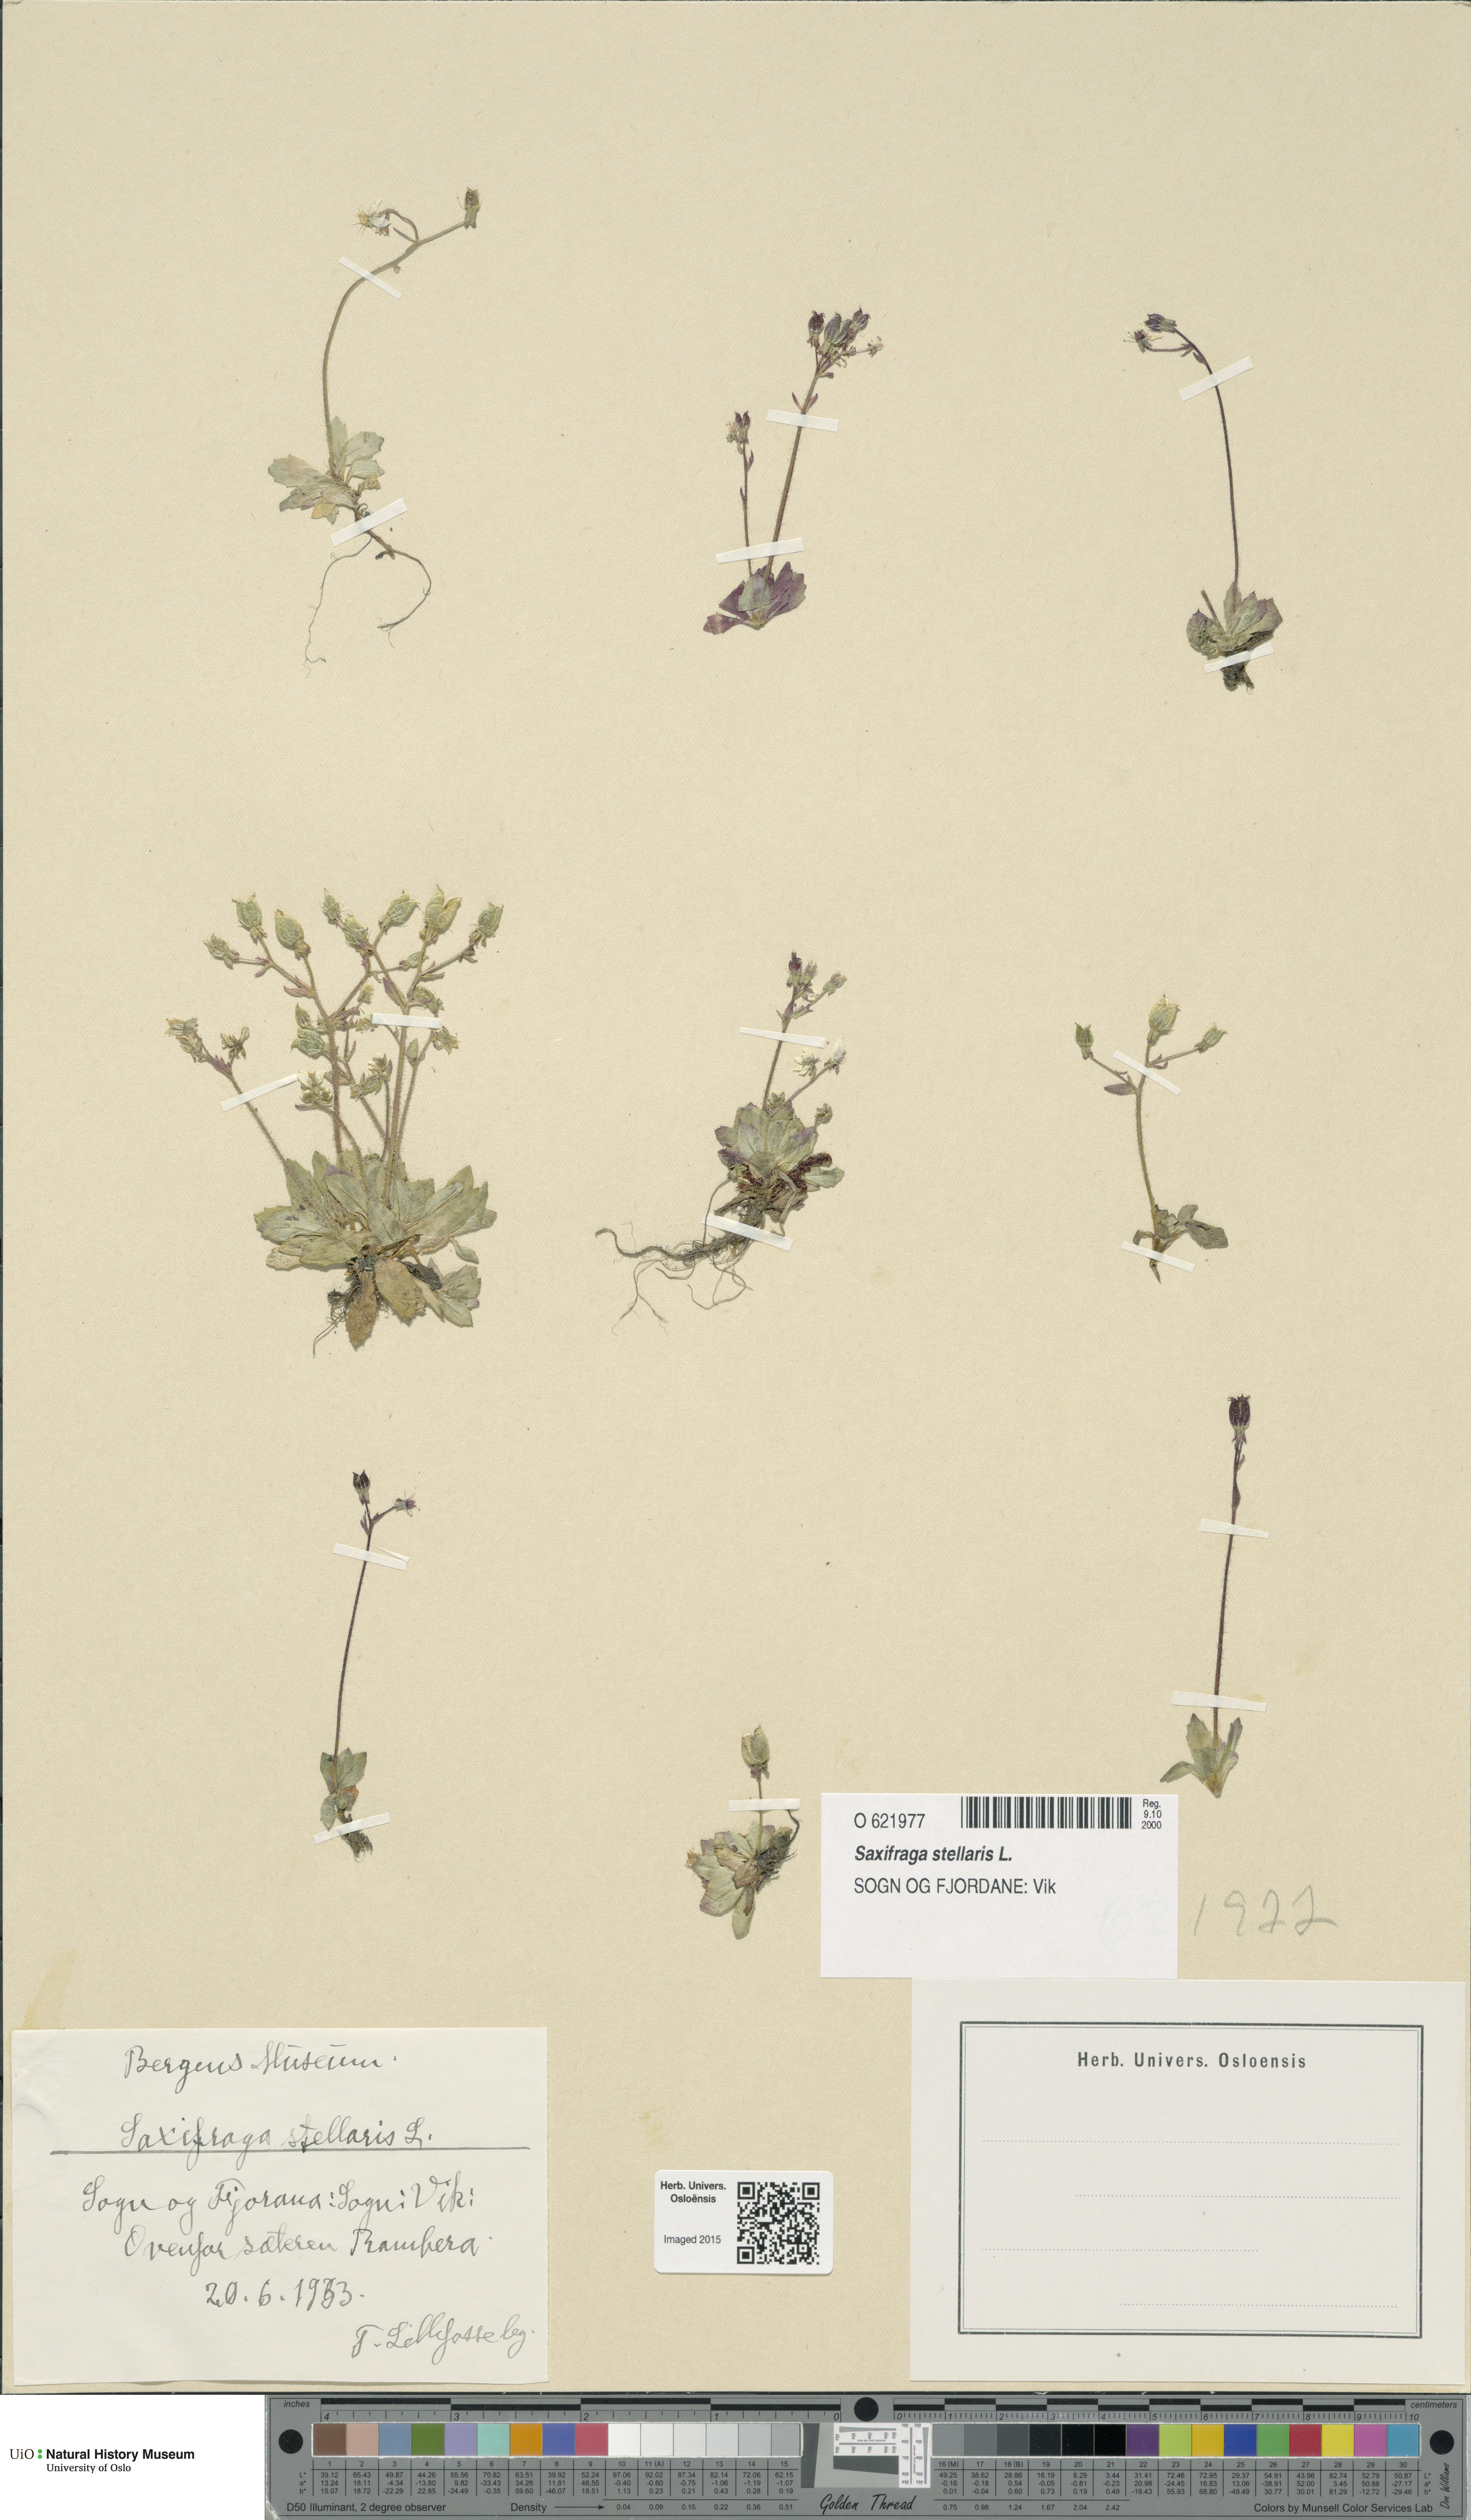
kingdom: Plantae
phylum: Tracheophyta
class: Magnoliopsida
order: Saxifragales
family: Saxifragaceae
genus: Micranthes
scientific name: Micranthes stellaris
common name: Starry saxifrage
